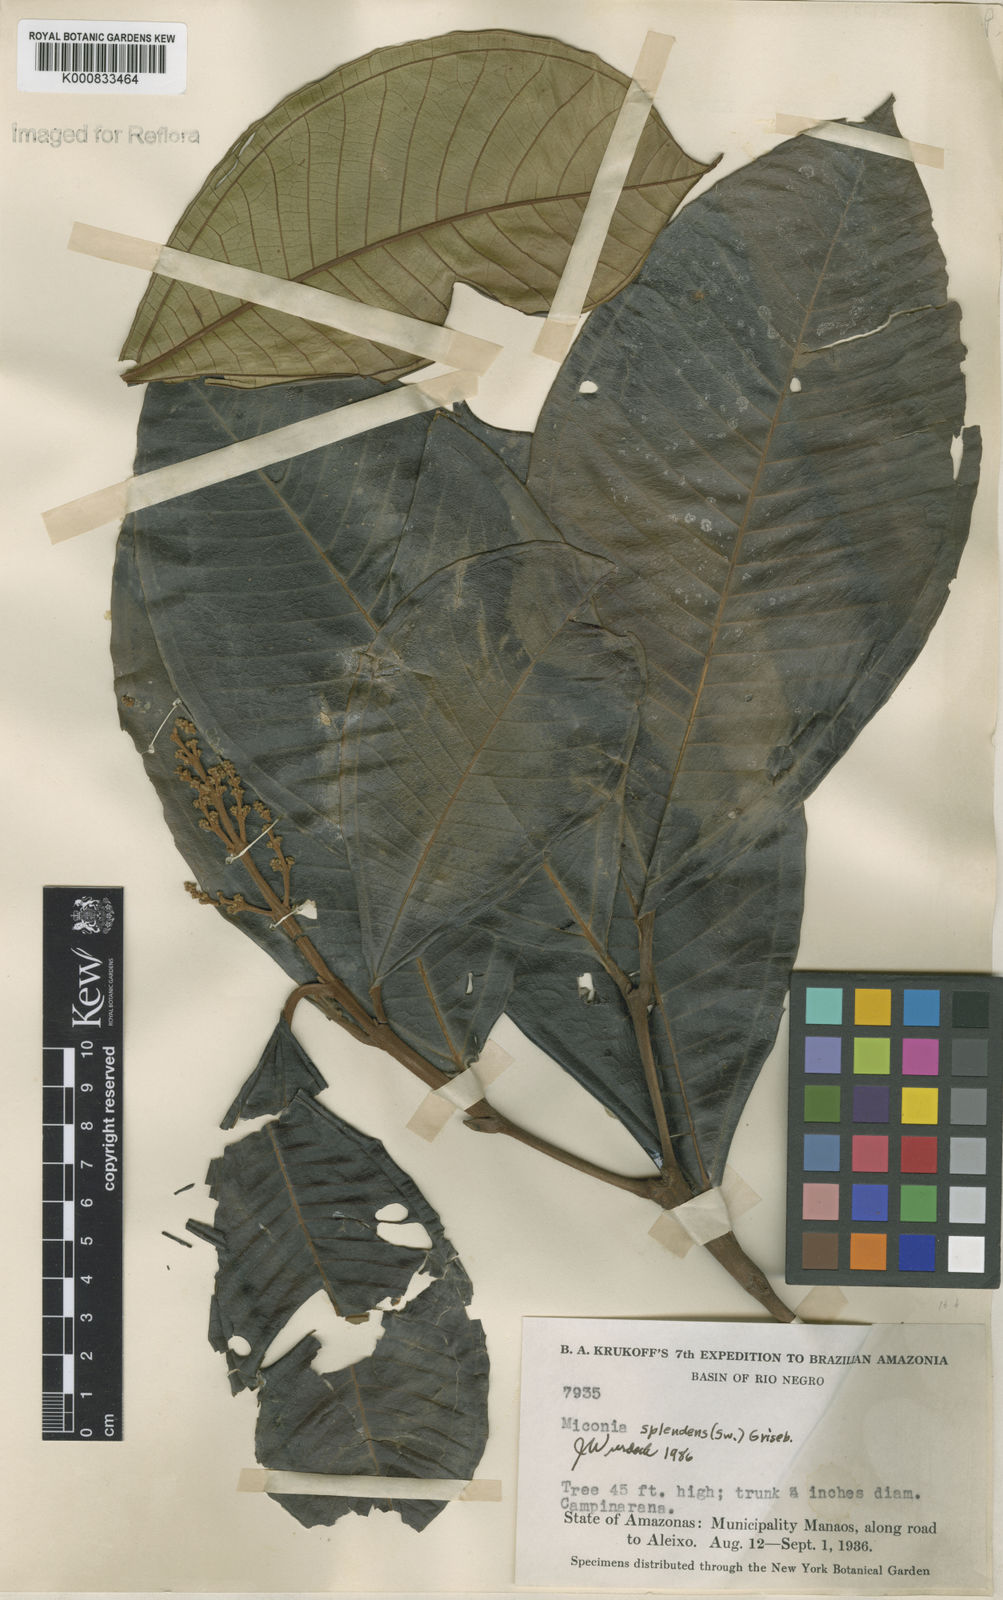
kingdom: Plantae
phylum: Tracheophyta
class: Magnoliopsida
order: Myrtales
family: Melastomataceae
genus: Miconia
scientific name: Miconia splendens
